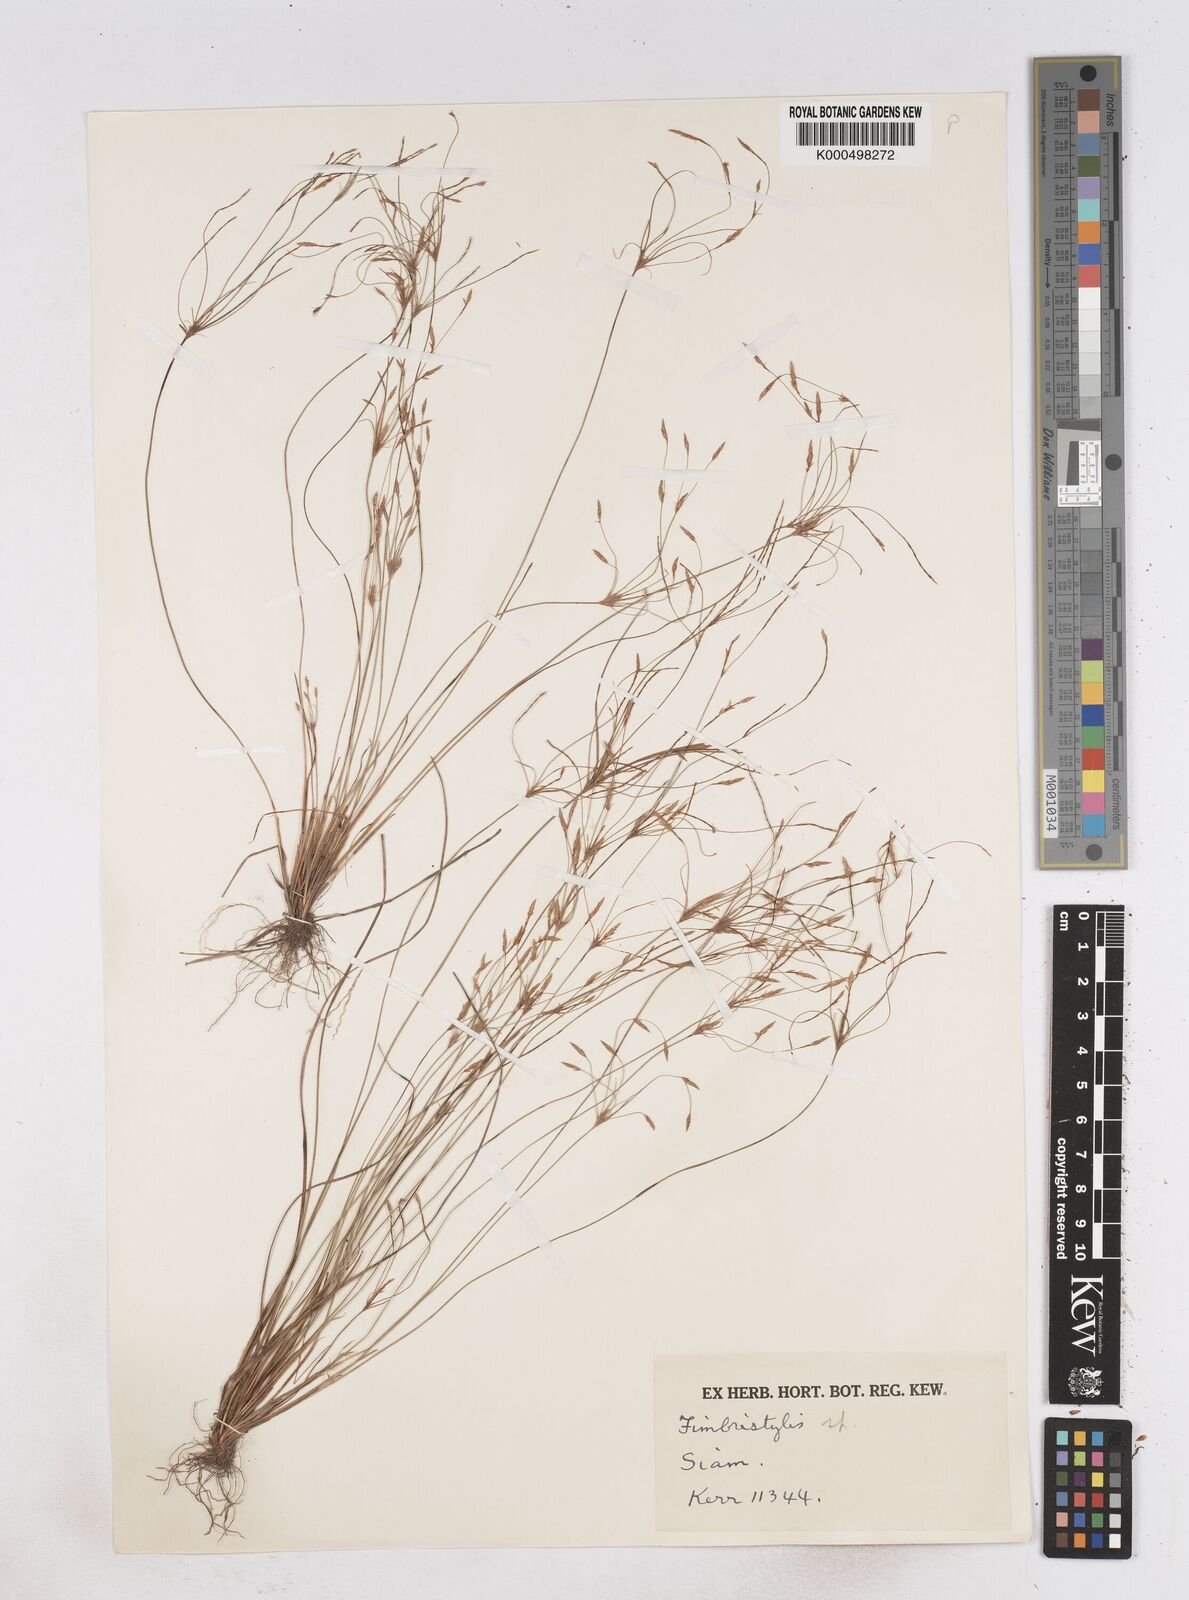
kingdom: Plantae
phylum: Tracheophyta
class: Liliopsida
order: Poales
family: Cyperaceae
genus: Fimbristylis
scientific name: Fimbristylis gracilenta
